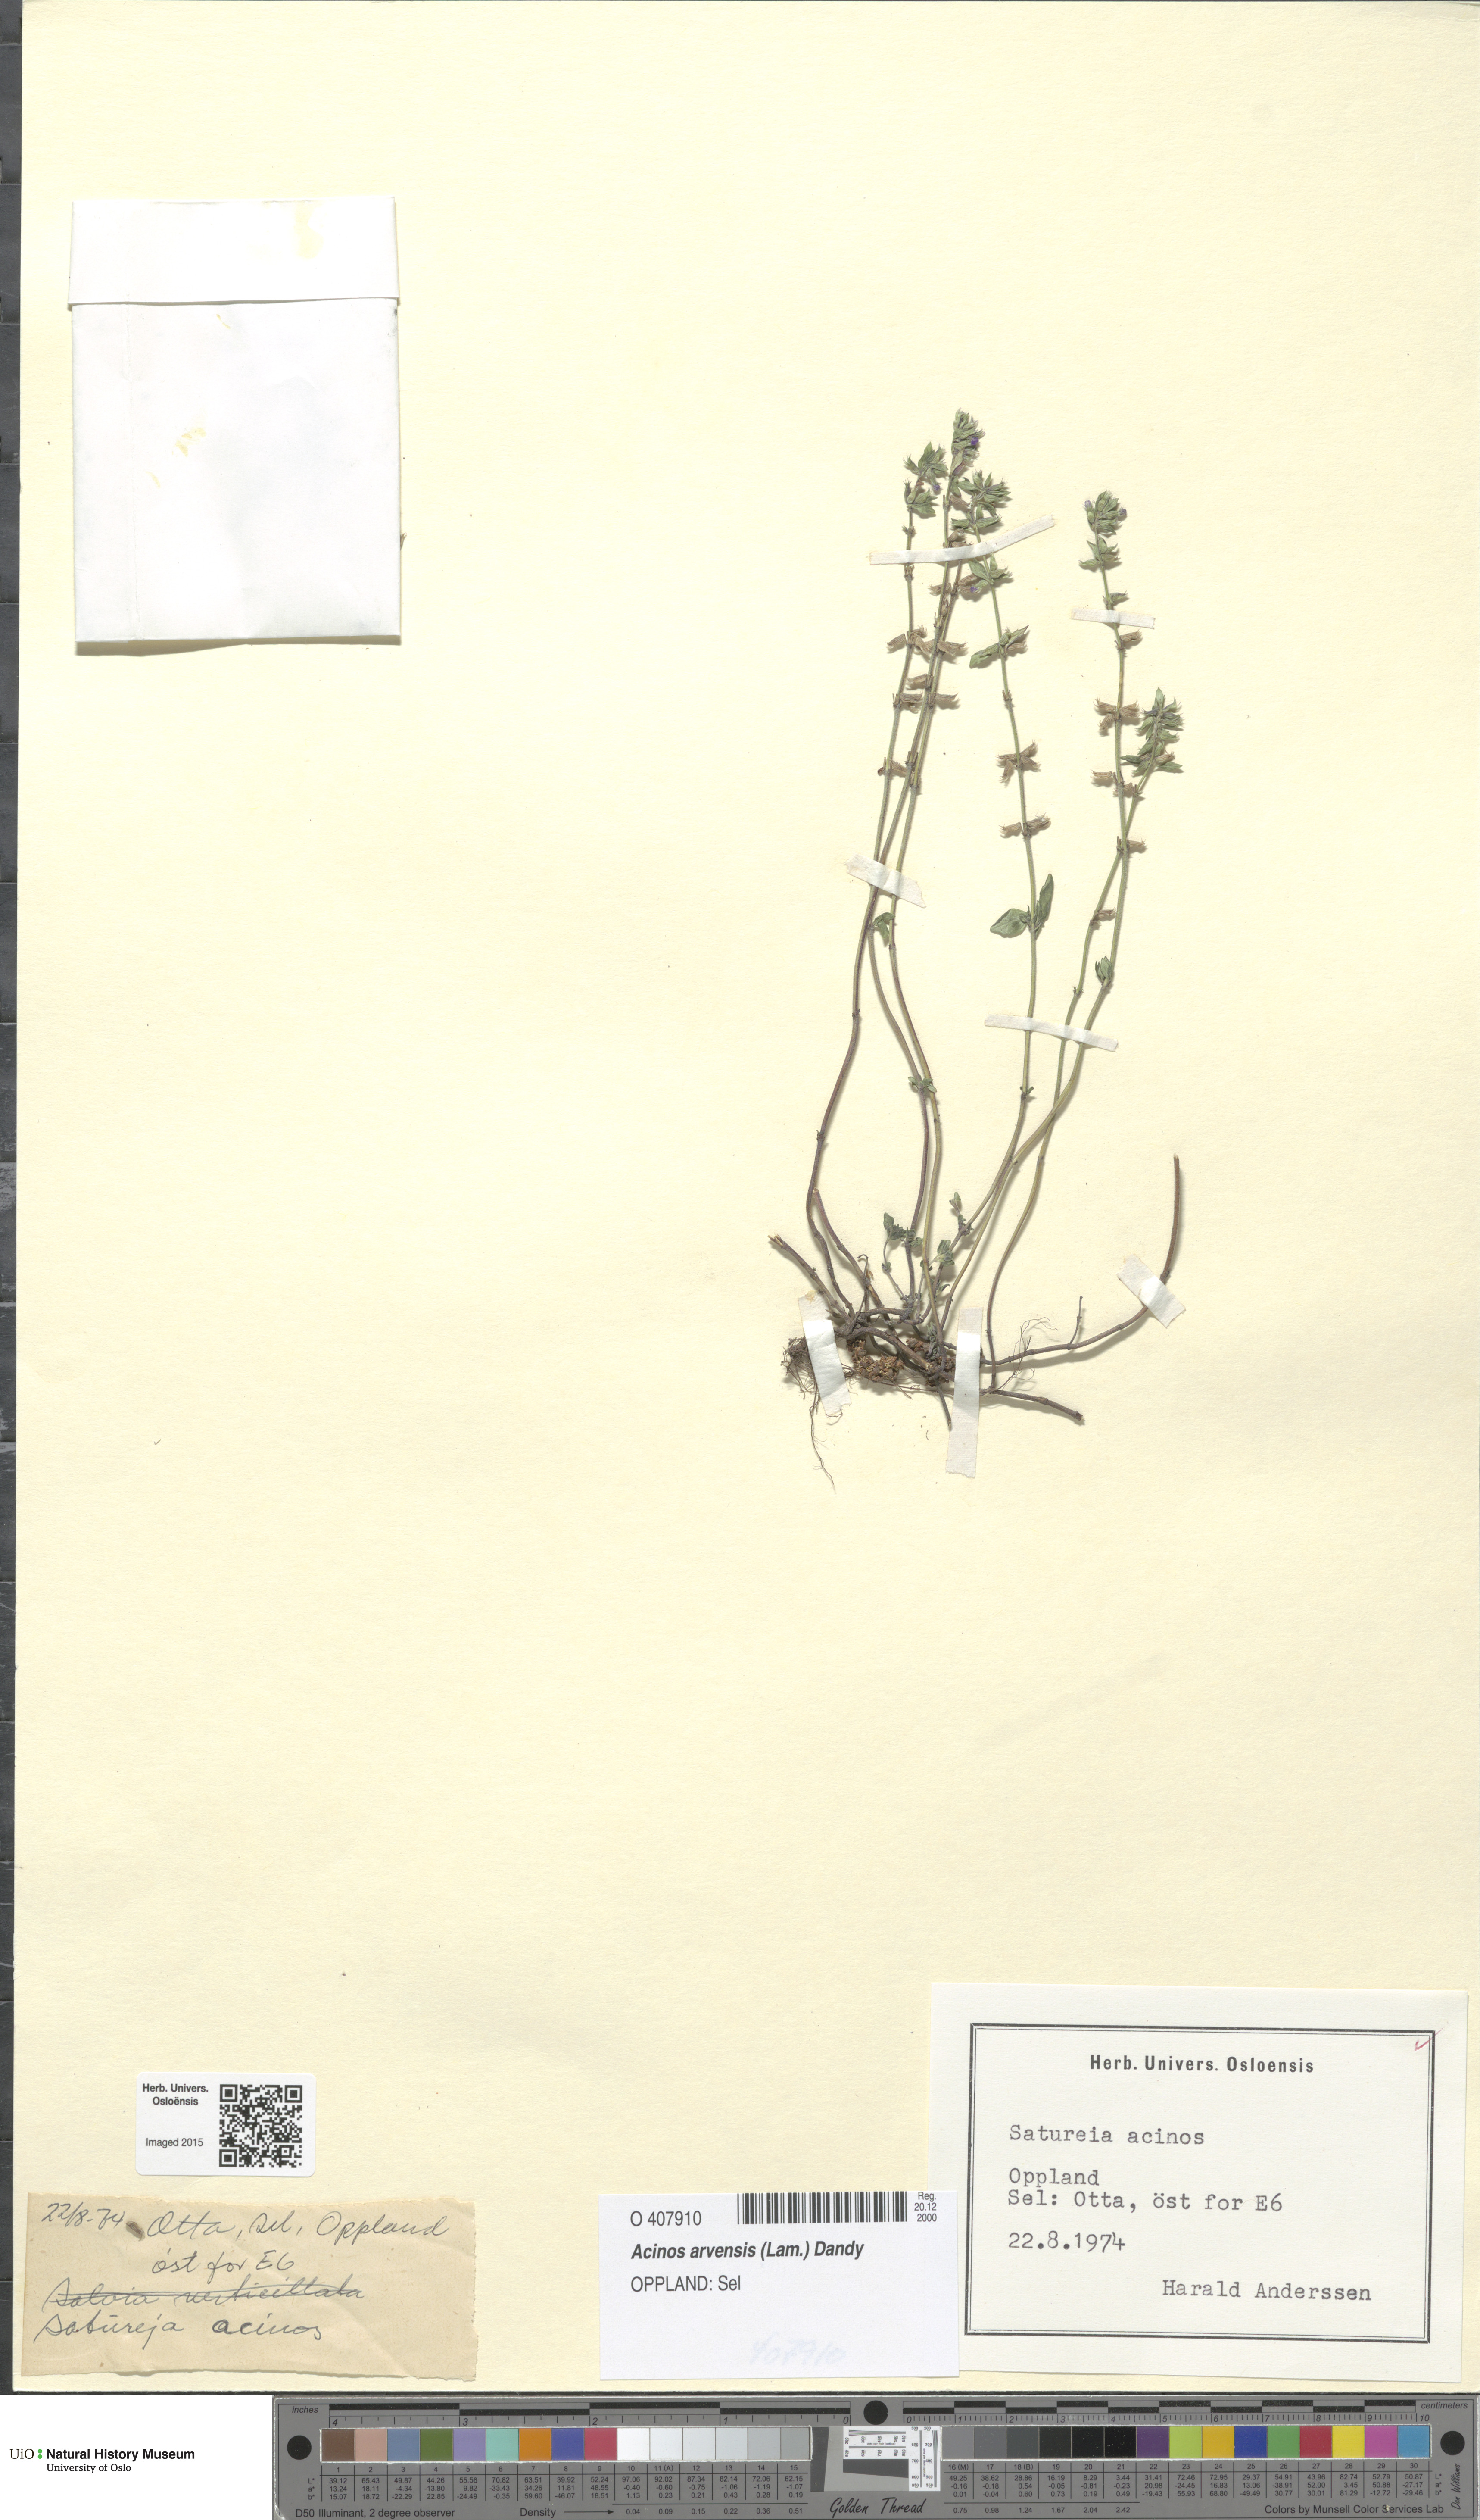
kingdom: Plantae
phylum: Tracheophyta
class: Magnoliopsida
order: Lamiales
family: Lamiaceae
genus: Clinopodium
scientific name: Clinopodium acinos
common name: Basil thyme
